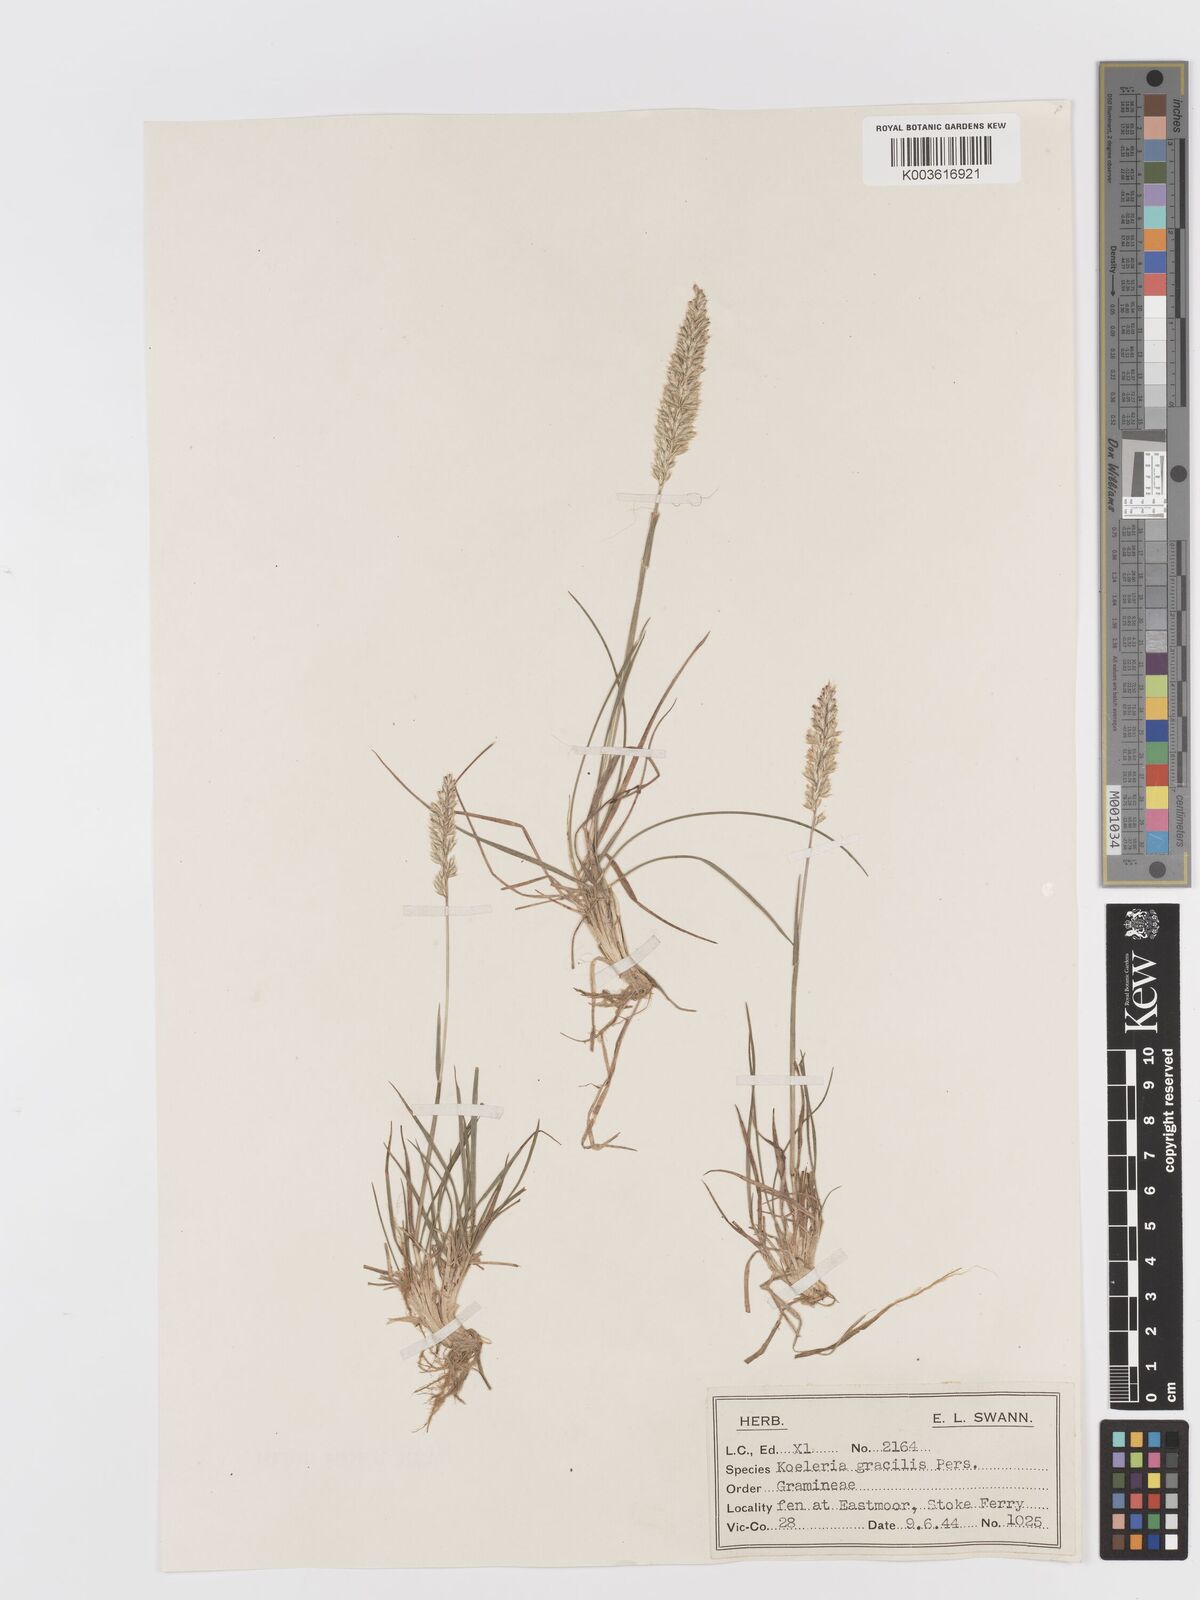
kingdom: Plantae
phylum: Tracheophyta
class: Liliopsida
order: Poales
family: Poaceae
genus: Koeleria
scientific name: Koeleria macrantha
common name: Crested hair-grass
